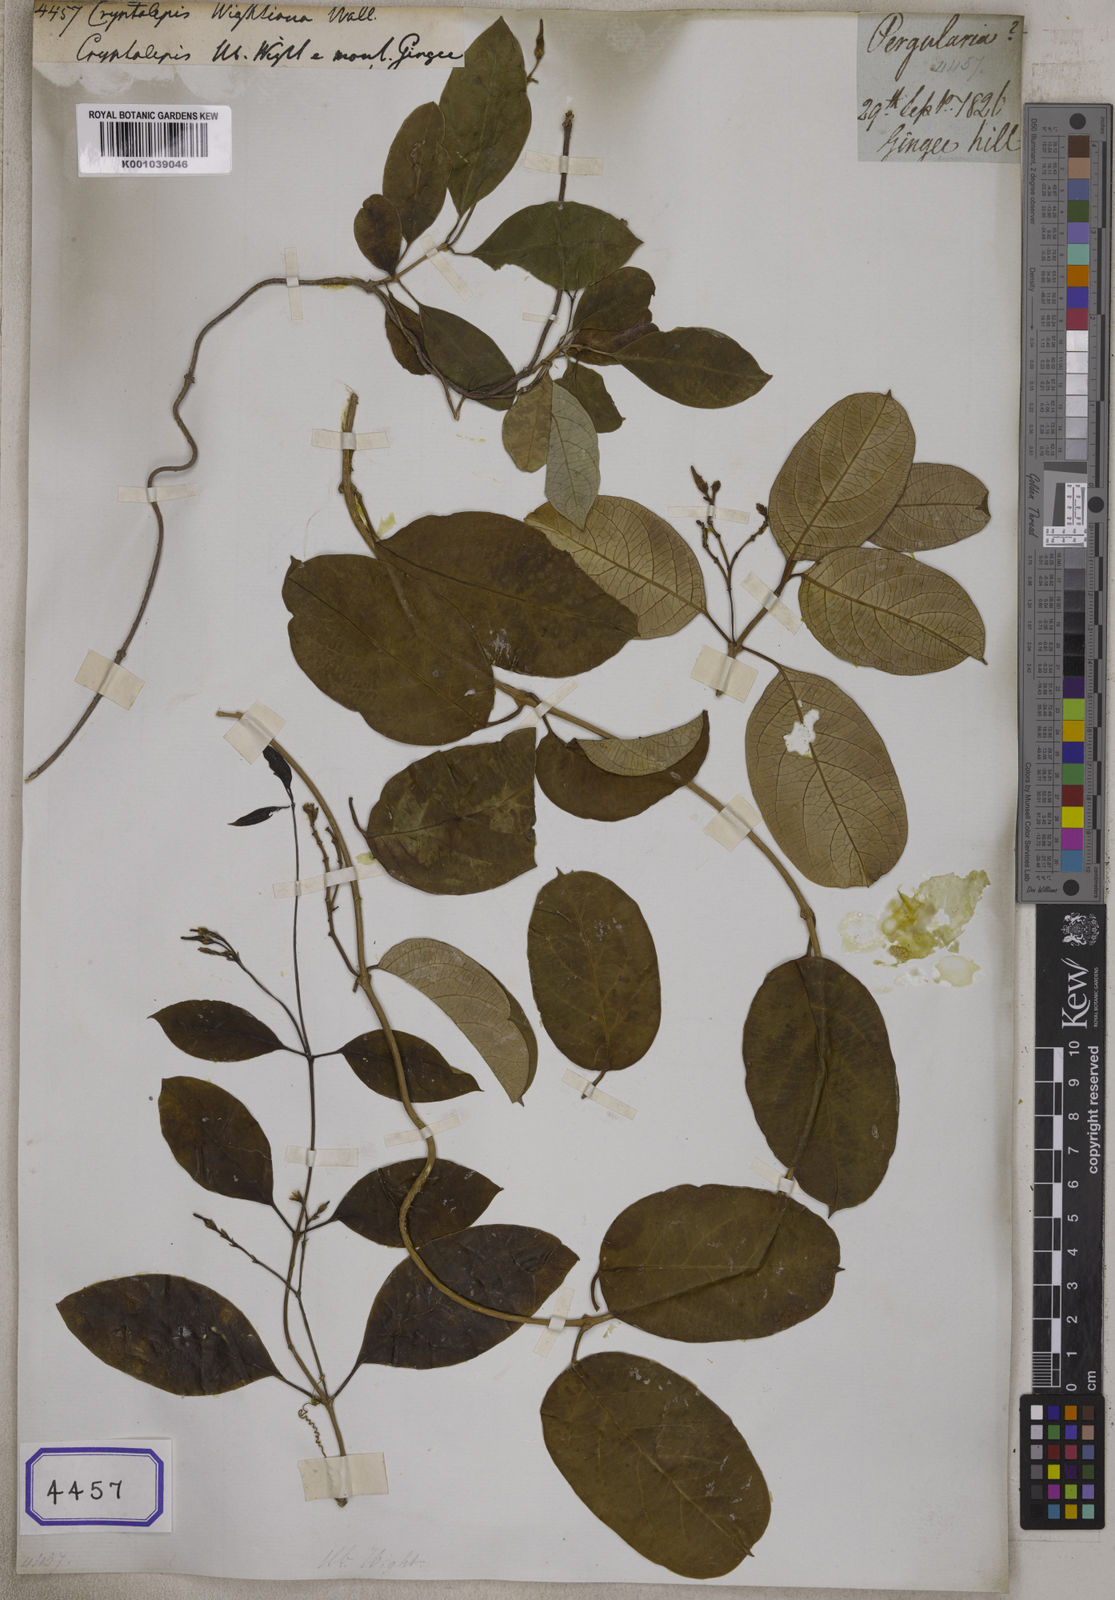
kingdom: Plantae
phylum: Tracheophyta
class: Magnoliopsida
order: Gentianales
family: Apocynaceae
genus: Cryptolepis
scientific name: Cryptolepis grandiflora
